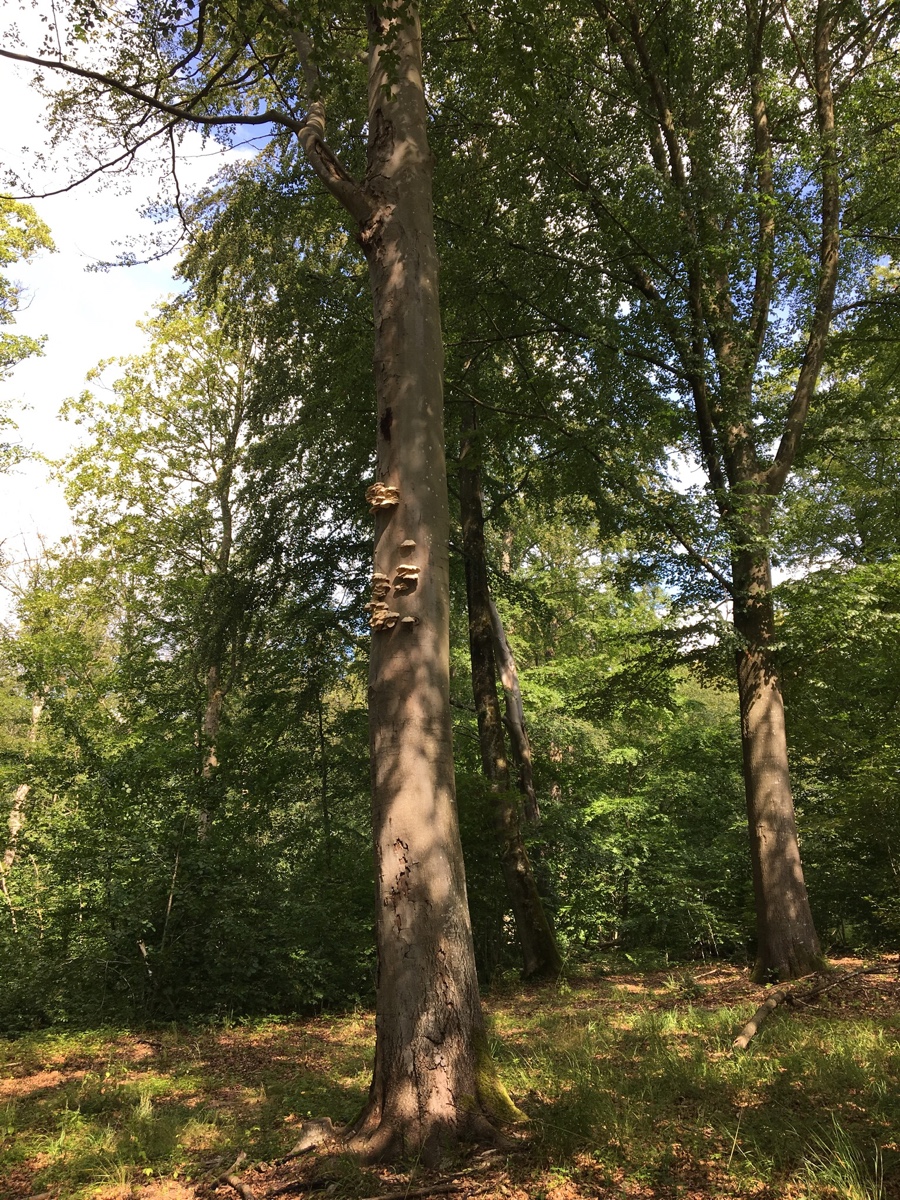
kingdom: Fungi
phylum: Basidiomycota
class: Agaricomycetes
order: Agaricales
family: Pleurotaceae
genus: Pleurotus
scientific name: Pleurotus pulmonarius
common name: sommer-østershat
